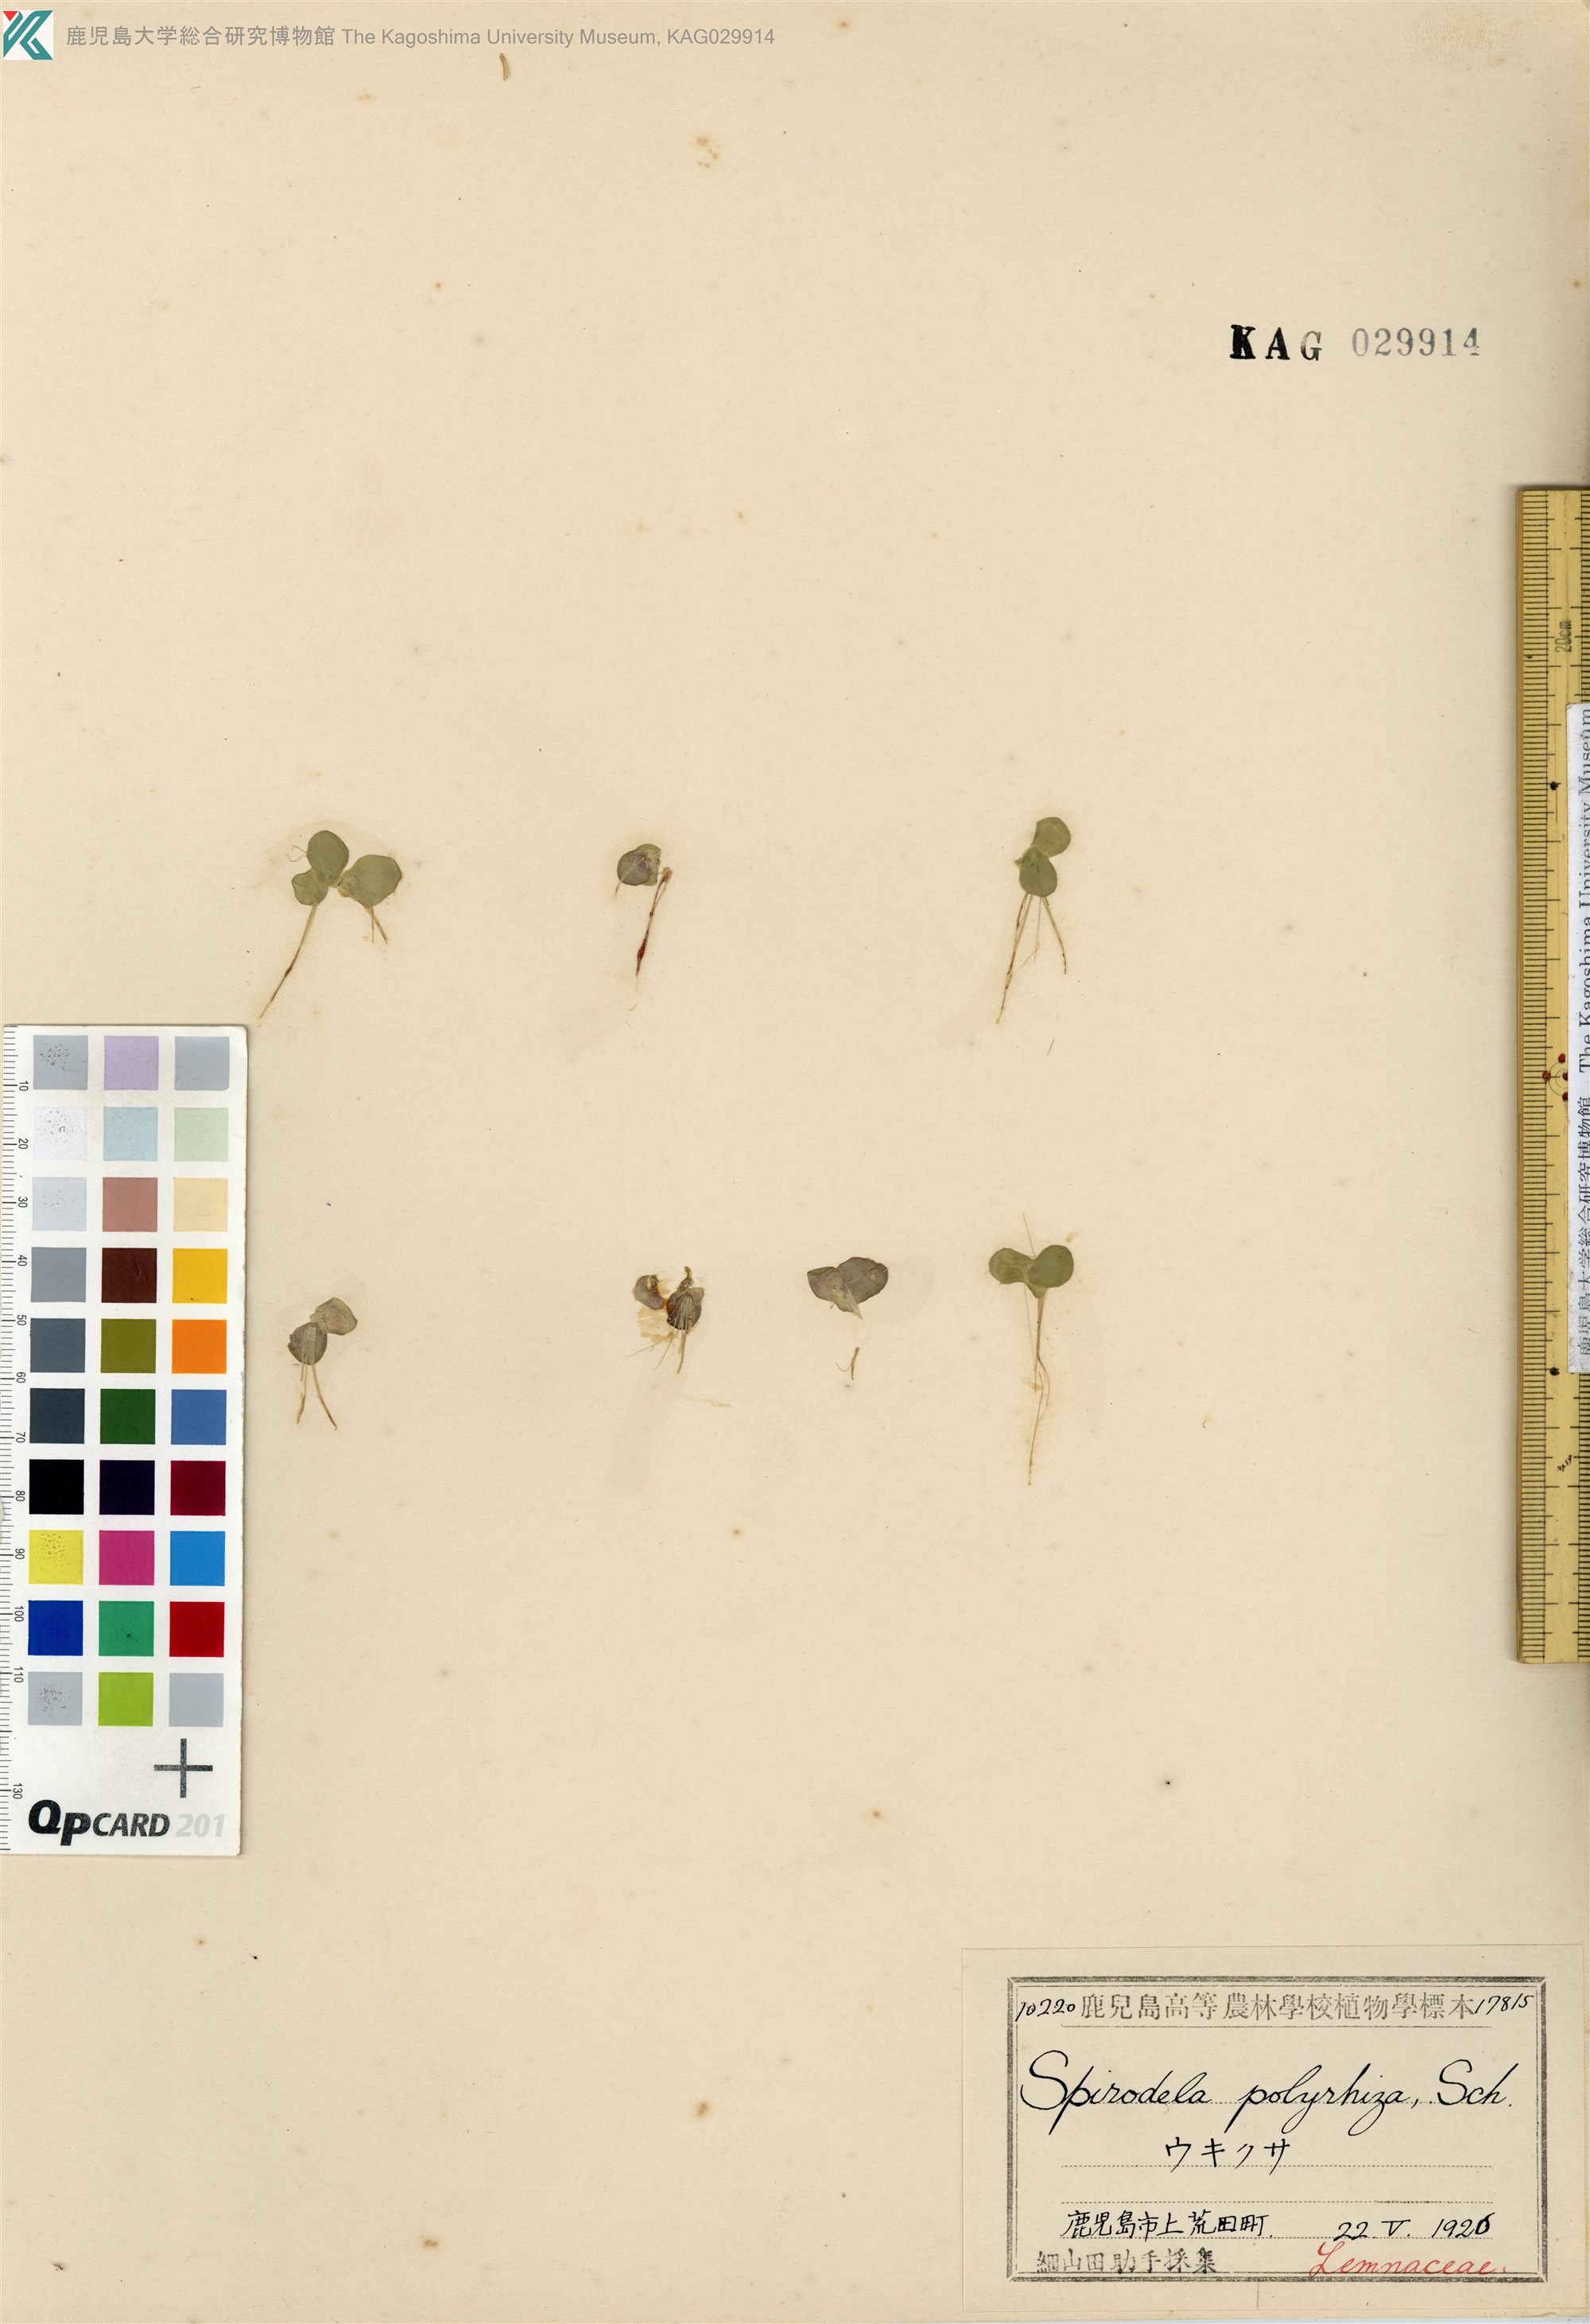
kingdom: Plantae
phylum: Tracheophyta
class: Liliopsida
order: Alismatales
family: Araceae
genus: Spirodela
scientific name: Spirodela polyrhiza
